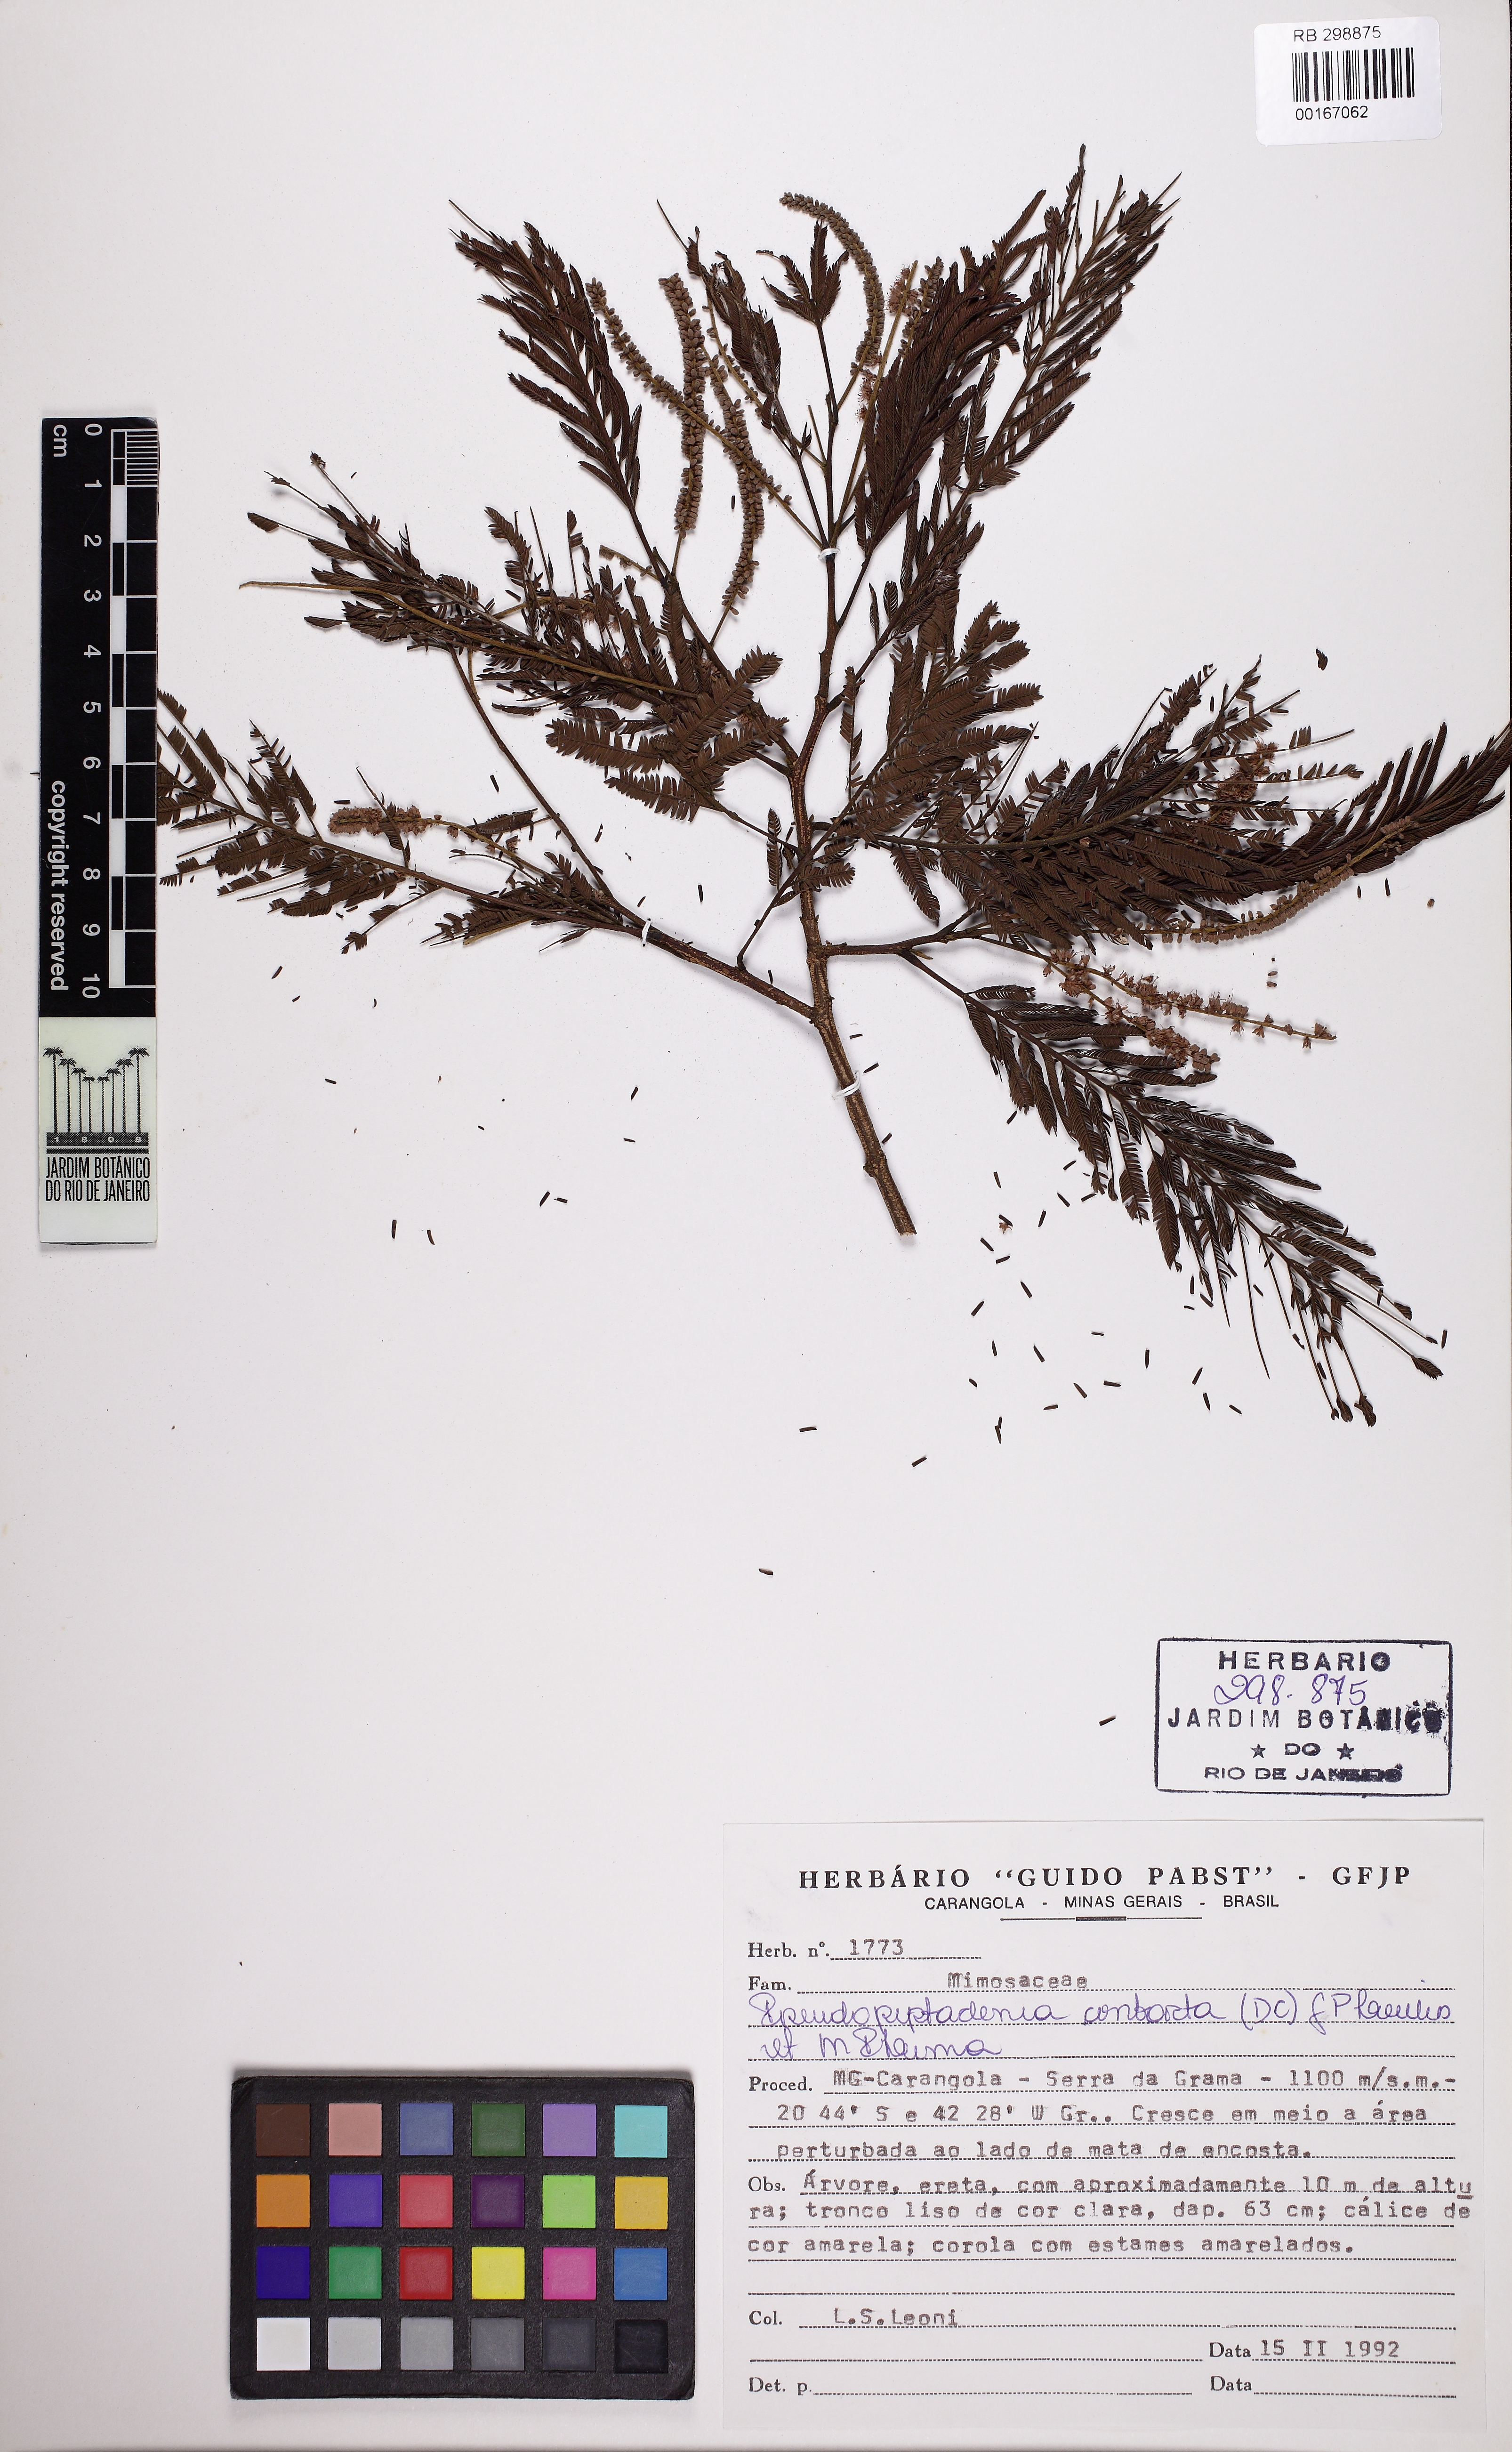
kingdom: Plantae
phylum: Tracheophyta
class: Magnoliopsida
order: Fabales
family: Fabaceae
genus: Nissolia
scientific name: Nissolia fruticosa
